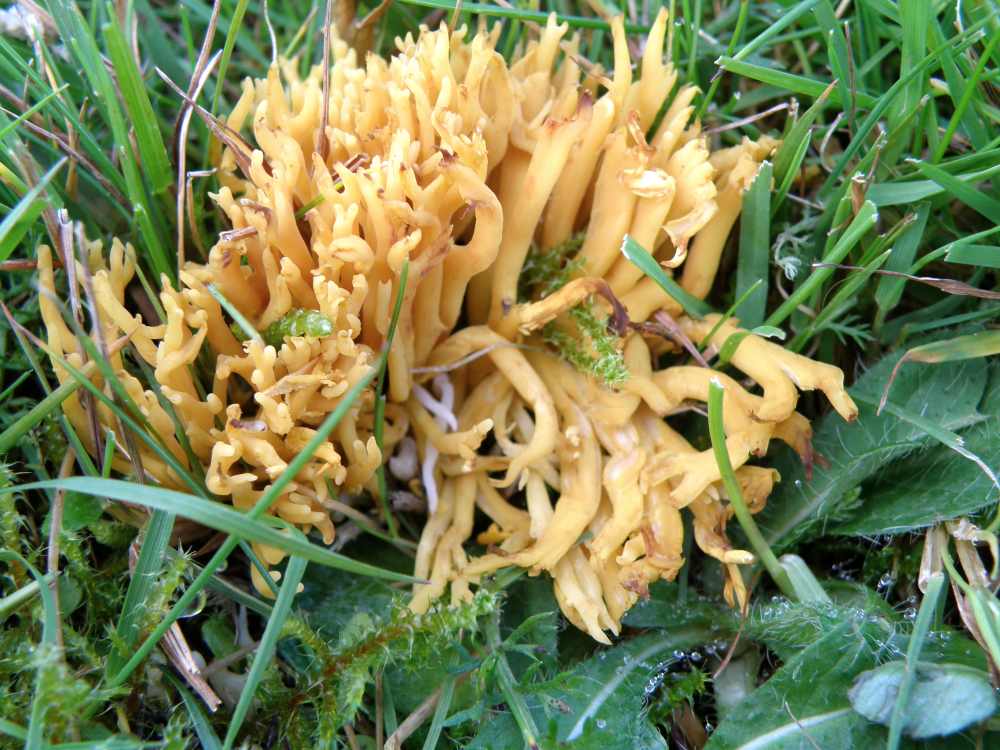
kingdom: Fungi
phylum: Basidiomycota
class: Agaricomycetes
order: Agaricales
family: Clavariaceae
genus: Clavulinopsis
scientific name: Clavulinopsis corniculata
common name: eng-køllesvamp
